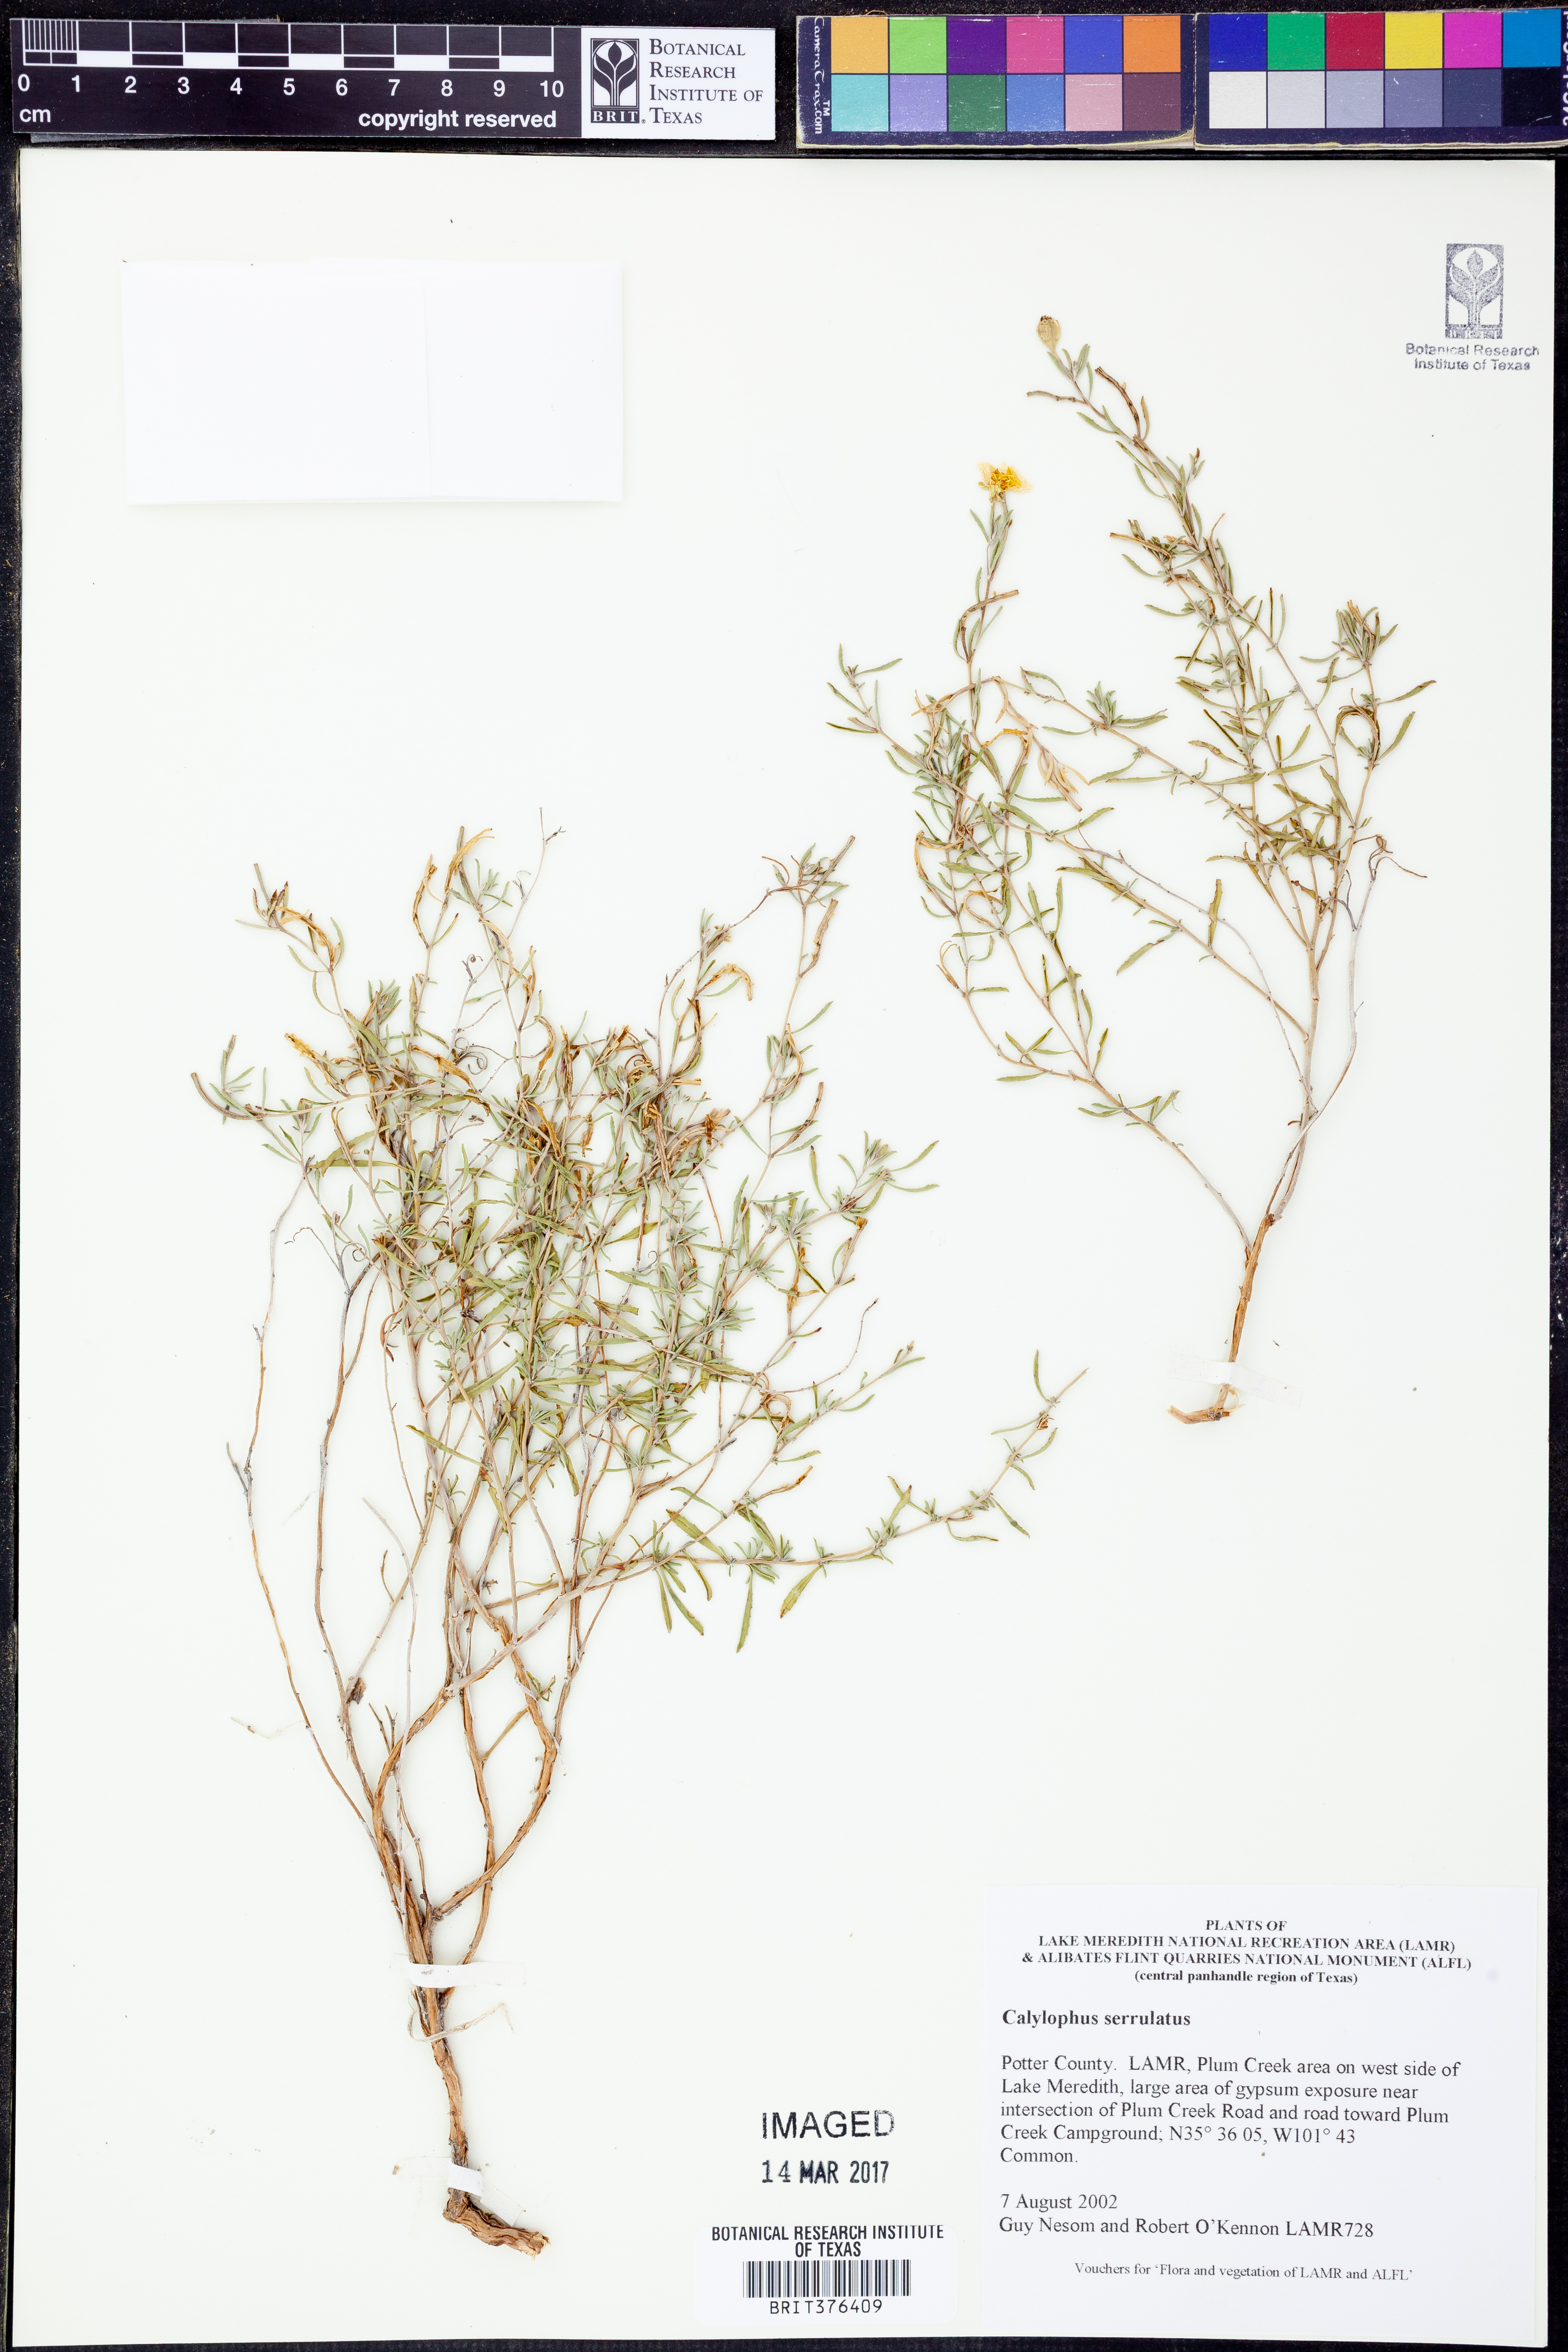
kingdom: Plantae
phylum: Tracheophyta
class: Magnoliopsida
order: Myrtales
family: Onagraceae
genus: Oenothera
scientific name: Oenothera serrulata
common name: Half-shrub calylophus
